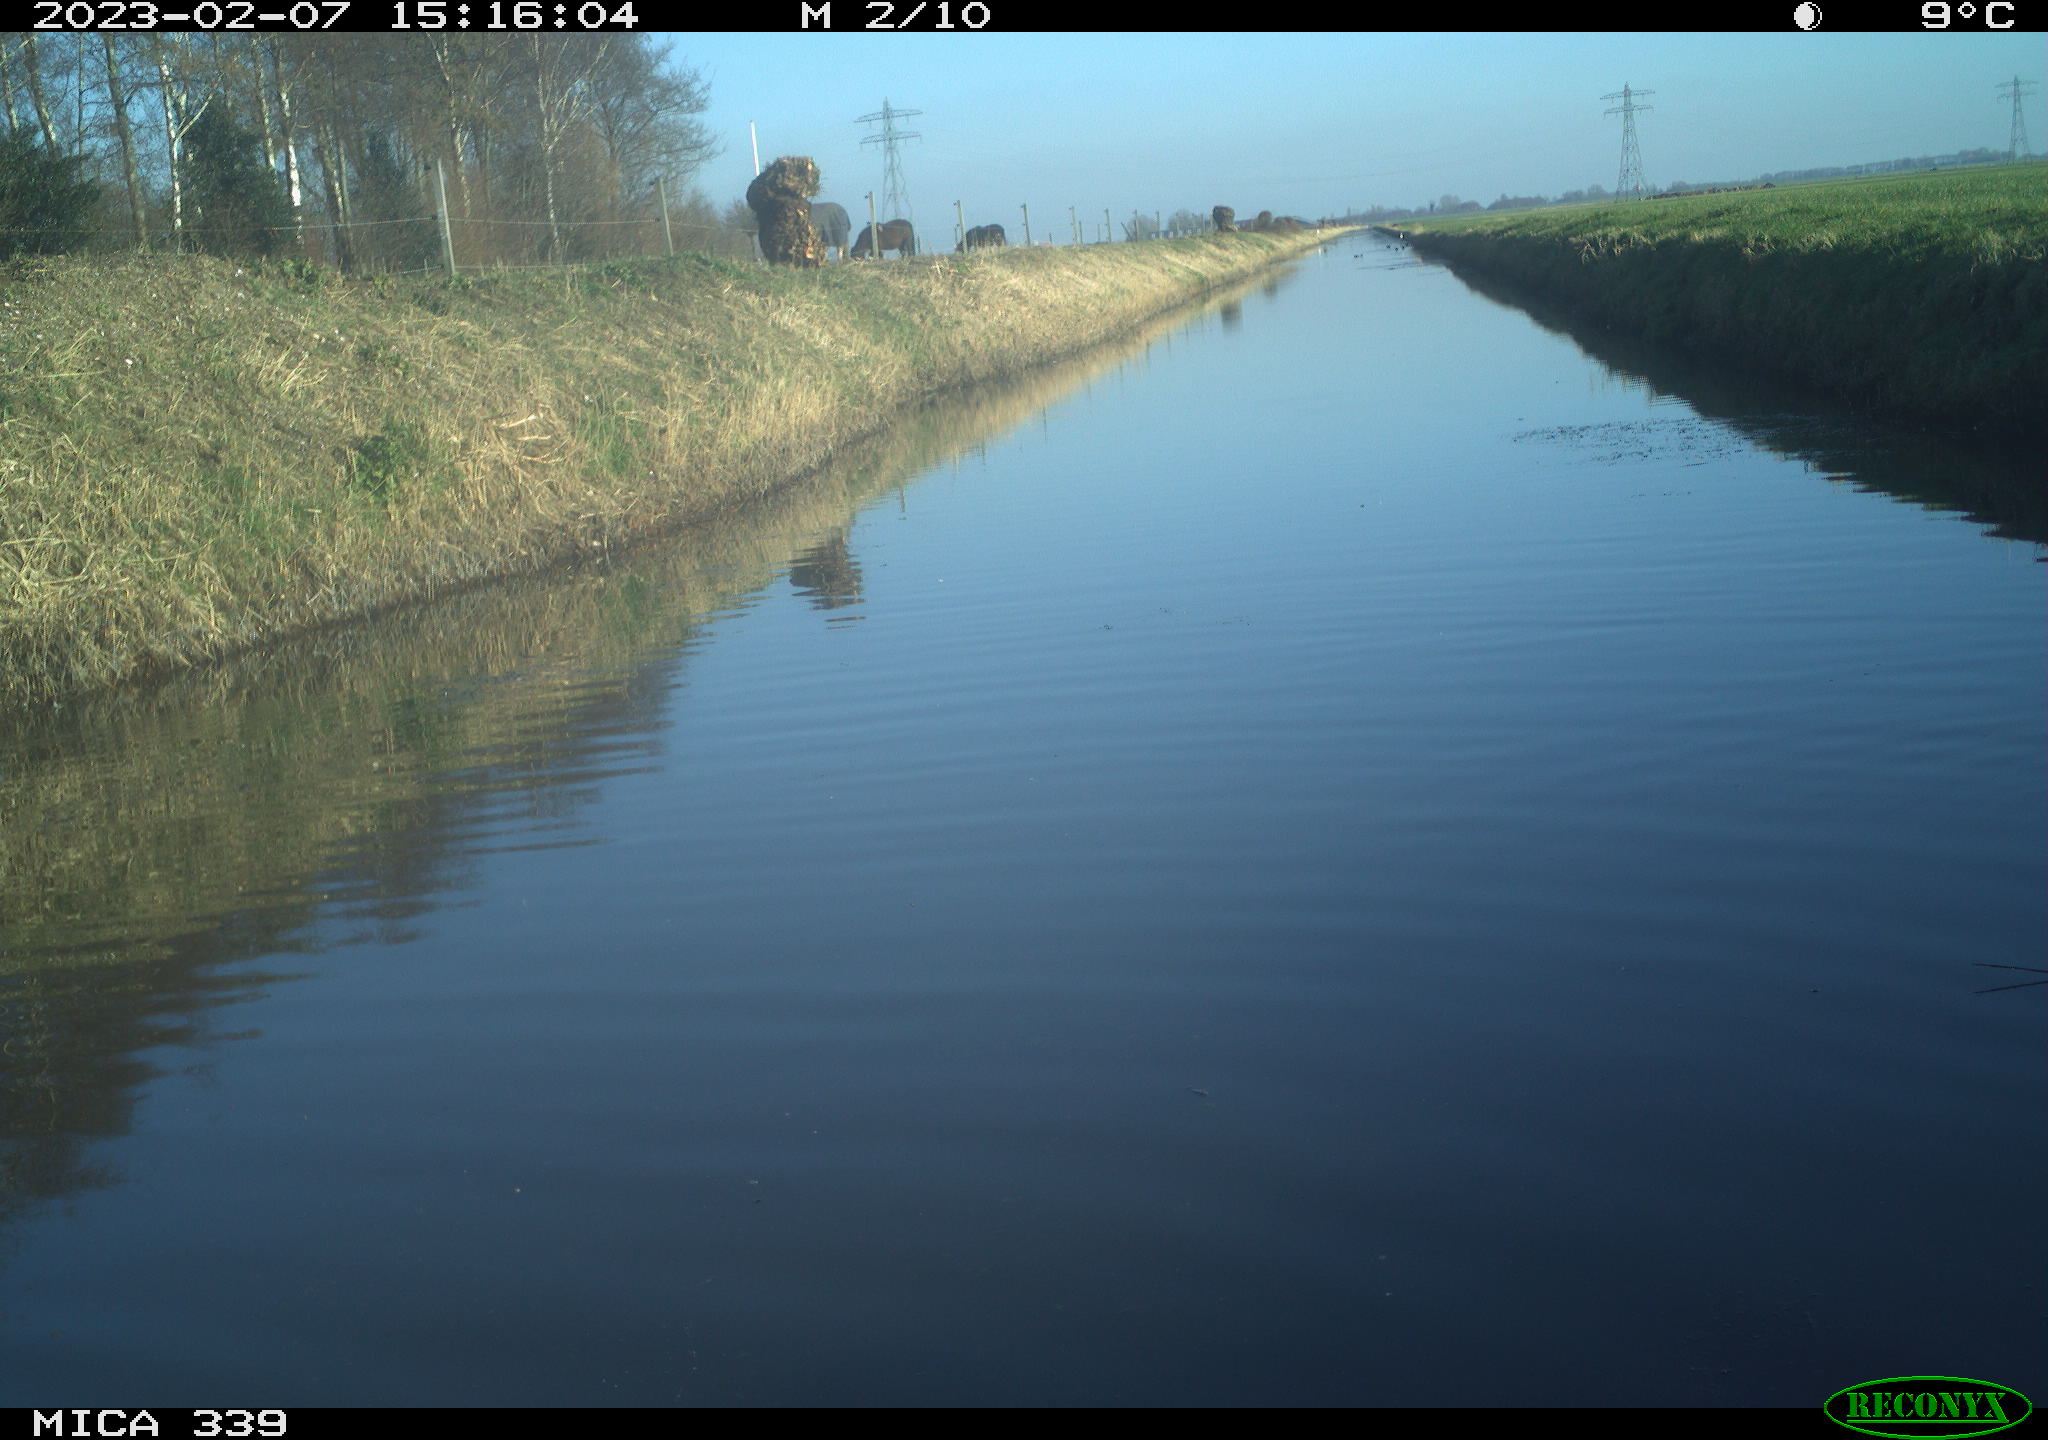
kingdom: Animalia
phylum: Chordata
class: Aves
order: Anseriformes
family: Anatidae
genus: Anas
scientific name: Anas
